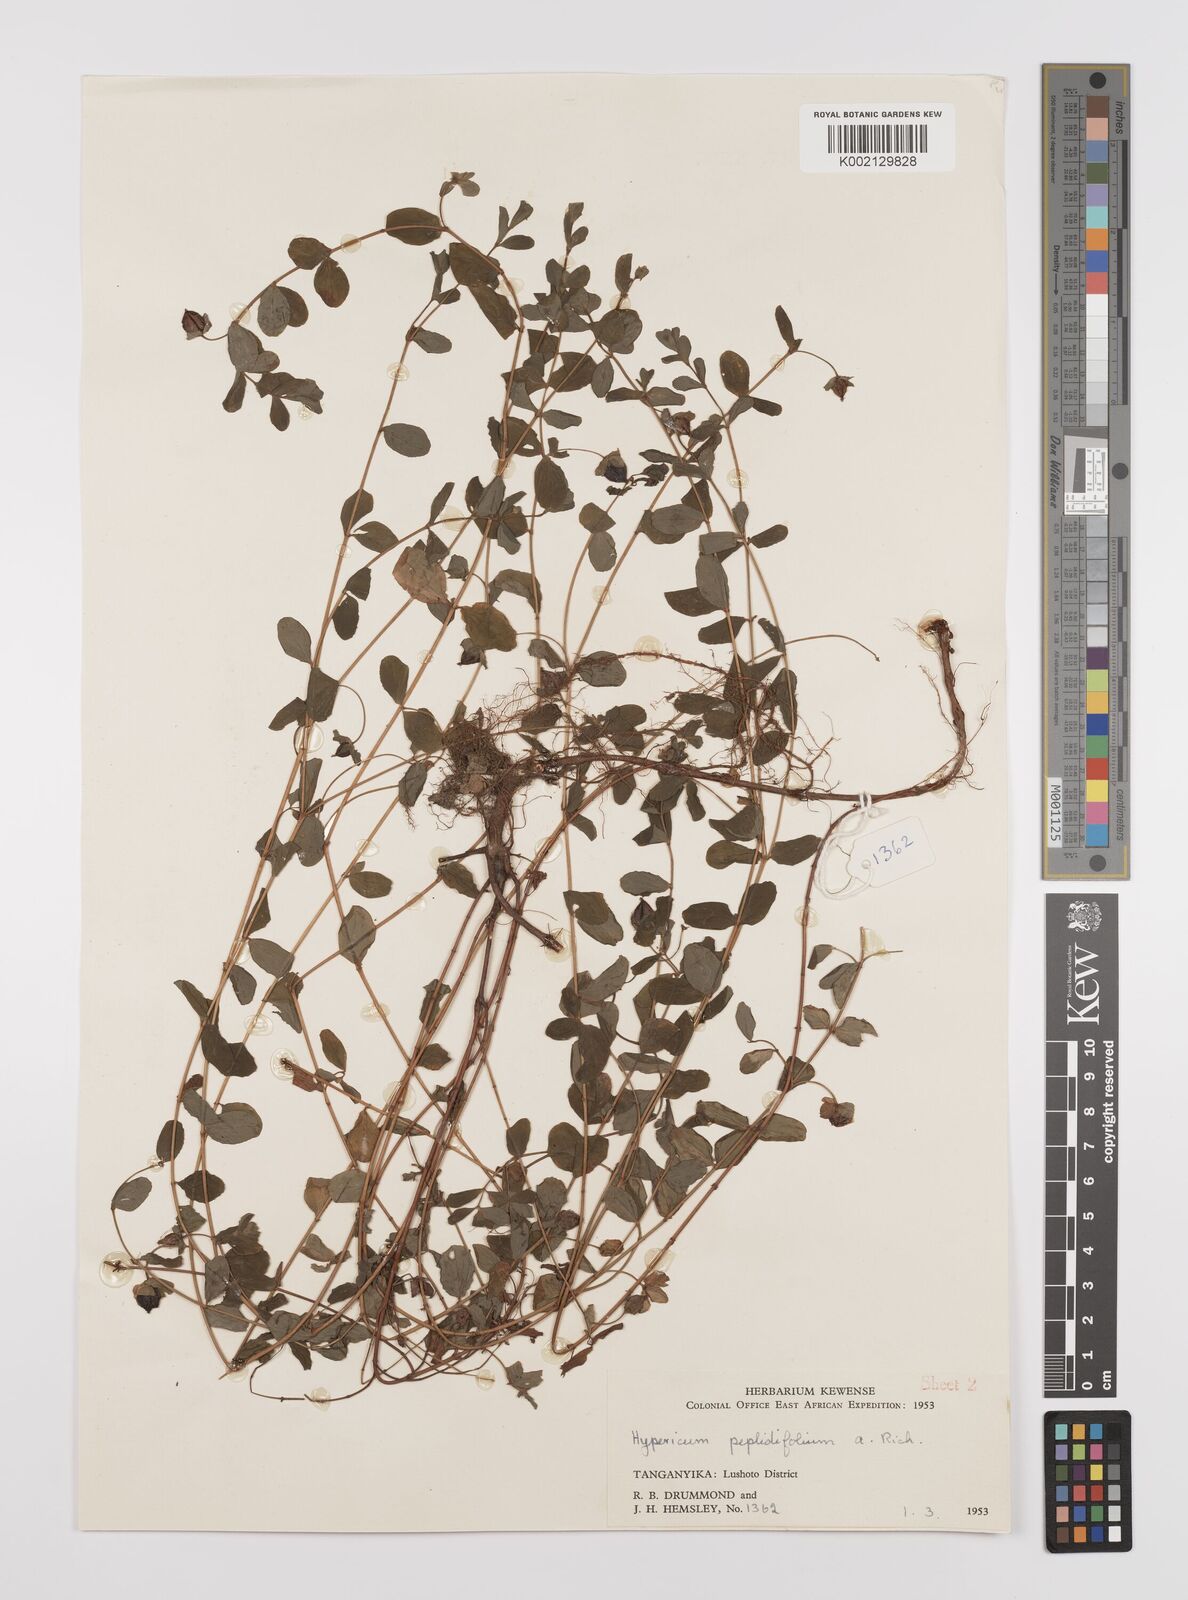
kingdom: Plantae
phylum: Tracheophyta
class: Magnoliopsida
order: Malpighiales
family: Hypericaceae
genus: Hypericum
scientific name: Hypericum peplidifolium
